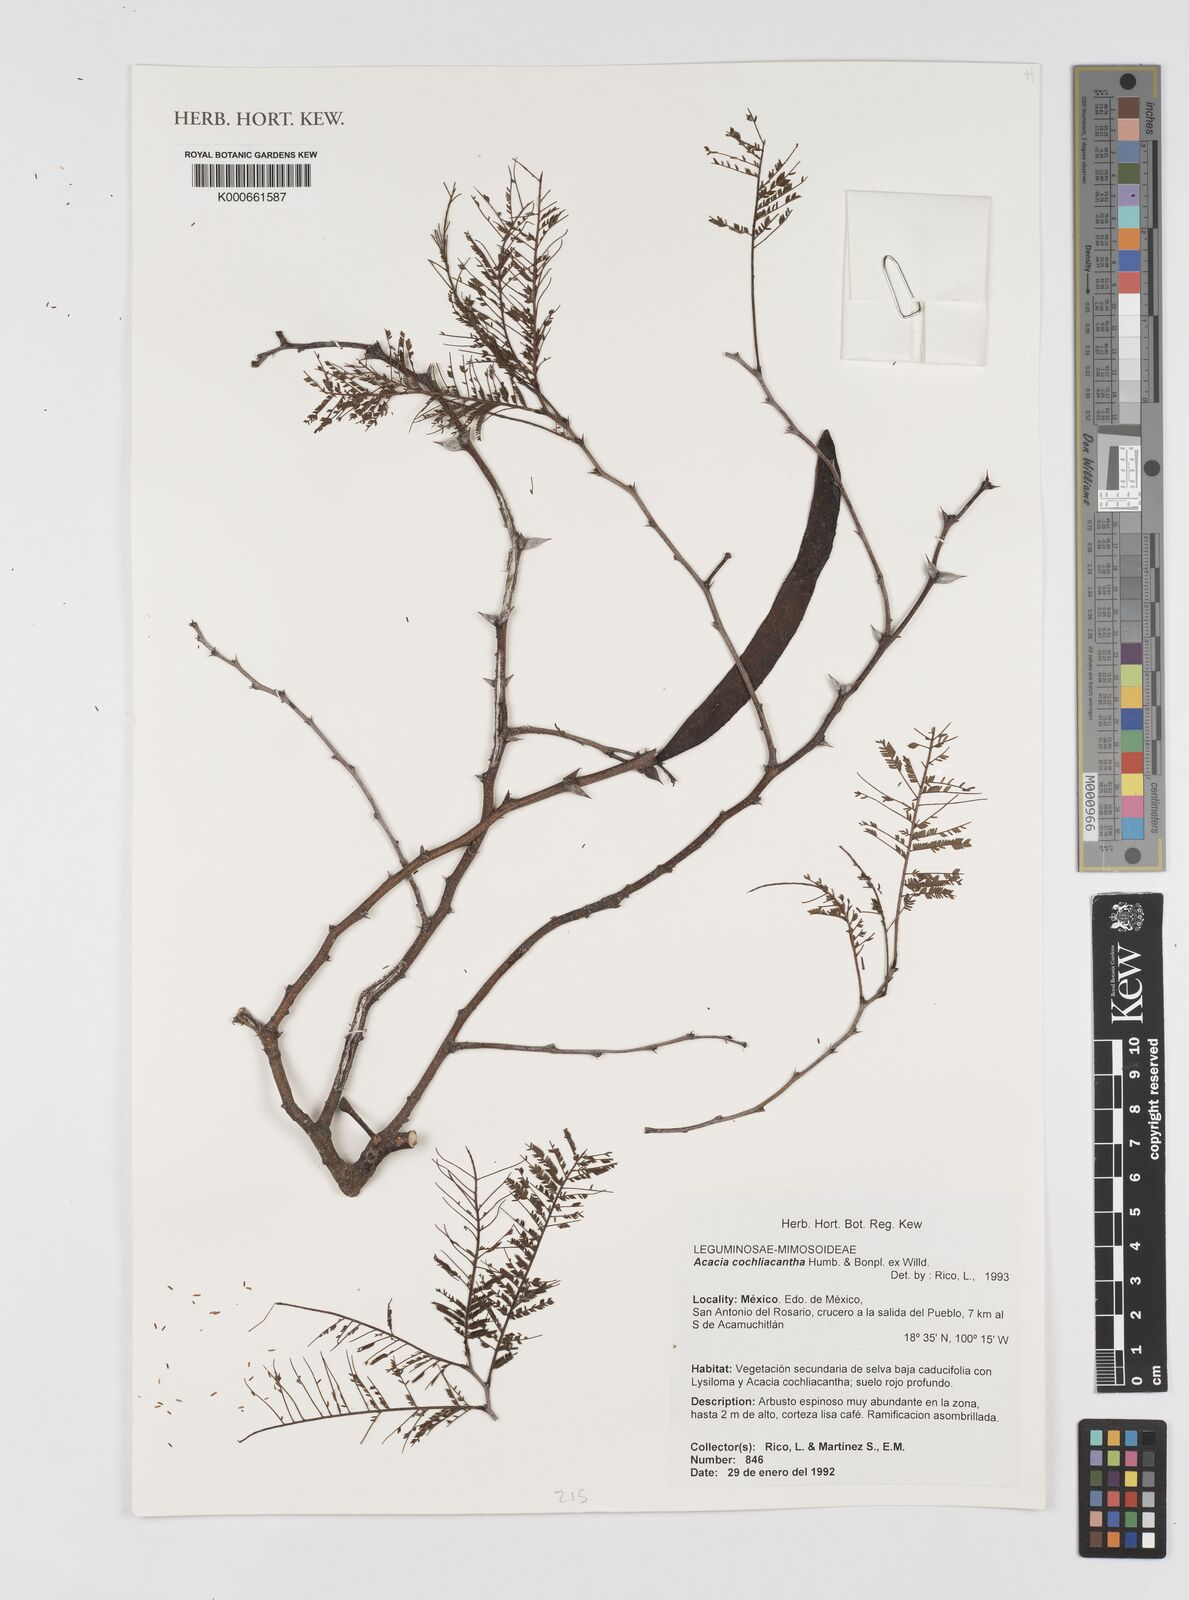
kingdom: Plantae
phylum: Tracheophyta
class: Magnoliopsida
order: Fabales
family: Fabaceae
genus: Vachellia
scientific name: Vachellia campeachiana
